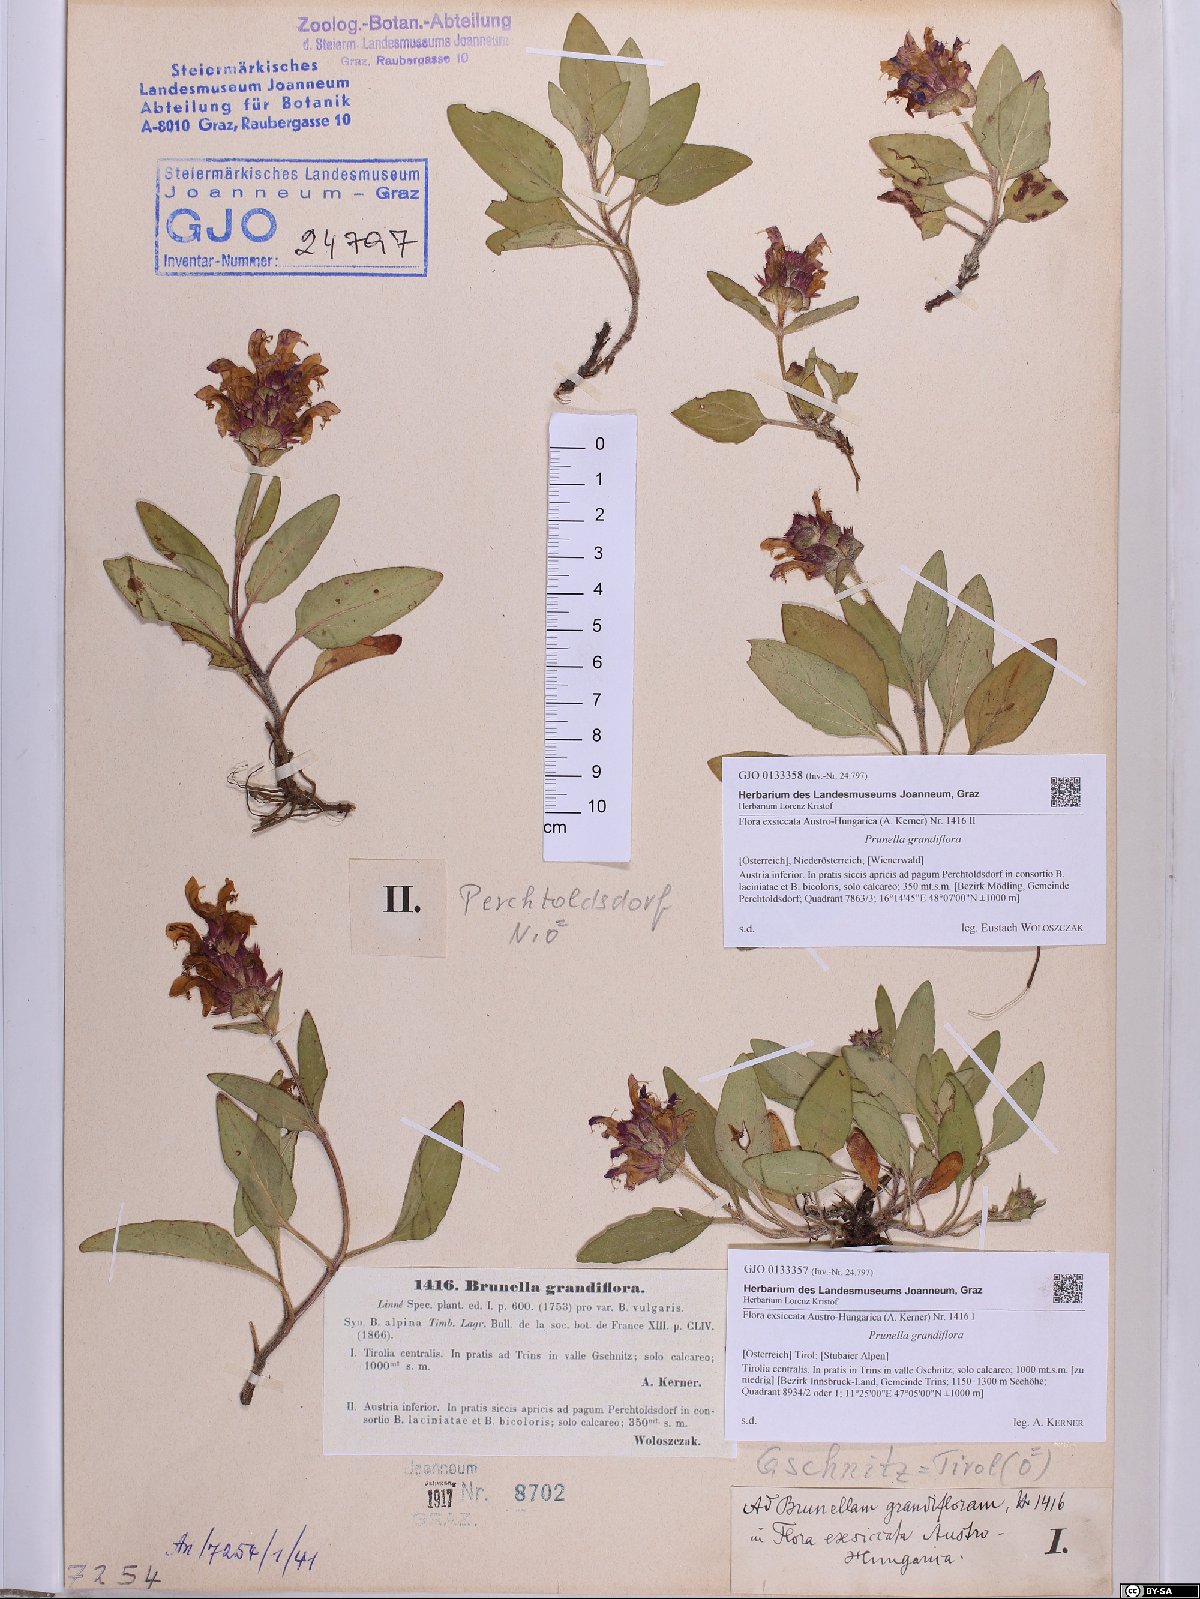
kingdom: Plantae
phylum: Tracheophyta
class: Magnoliopsida
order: Lamiales
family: Lamiaceae
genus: Prunella
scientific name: Prunella grandiflora
